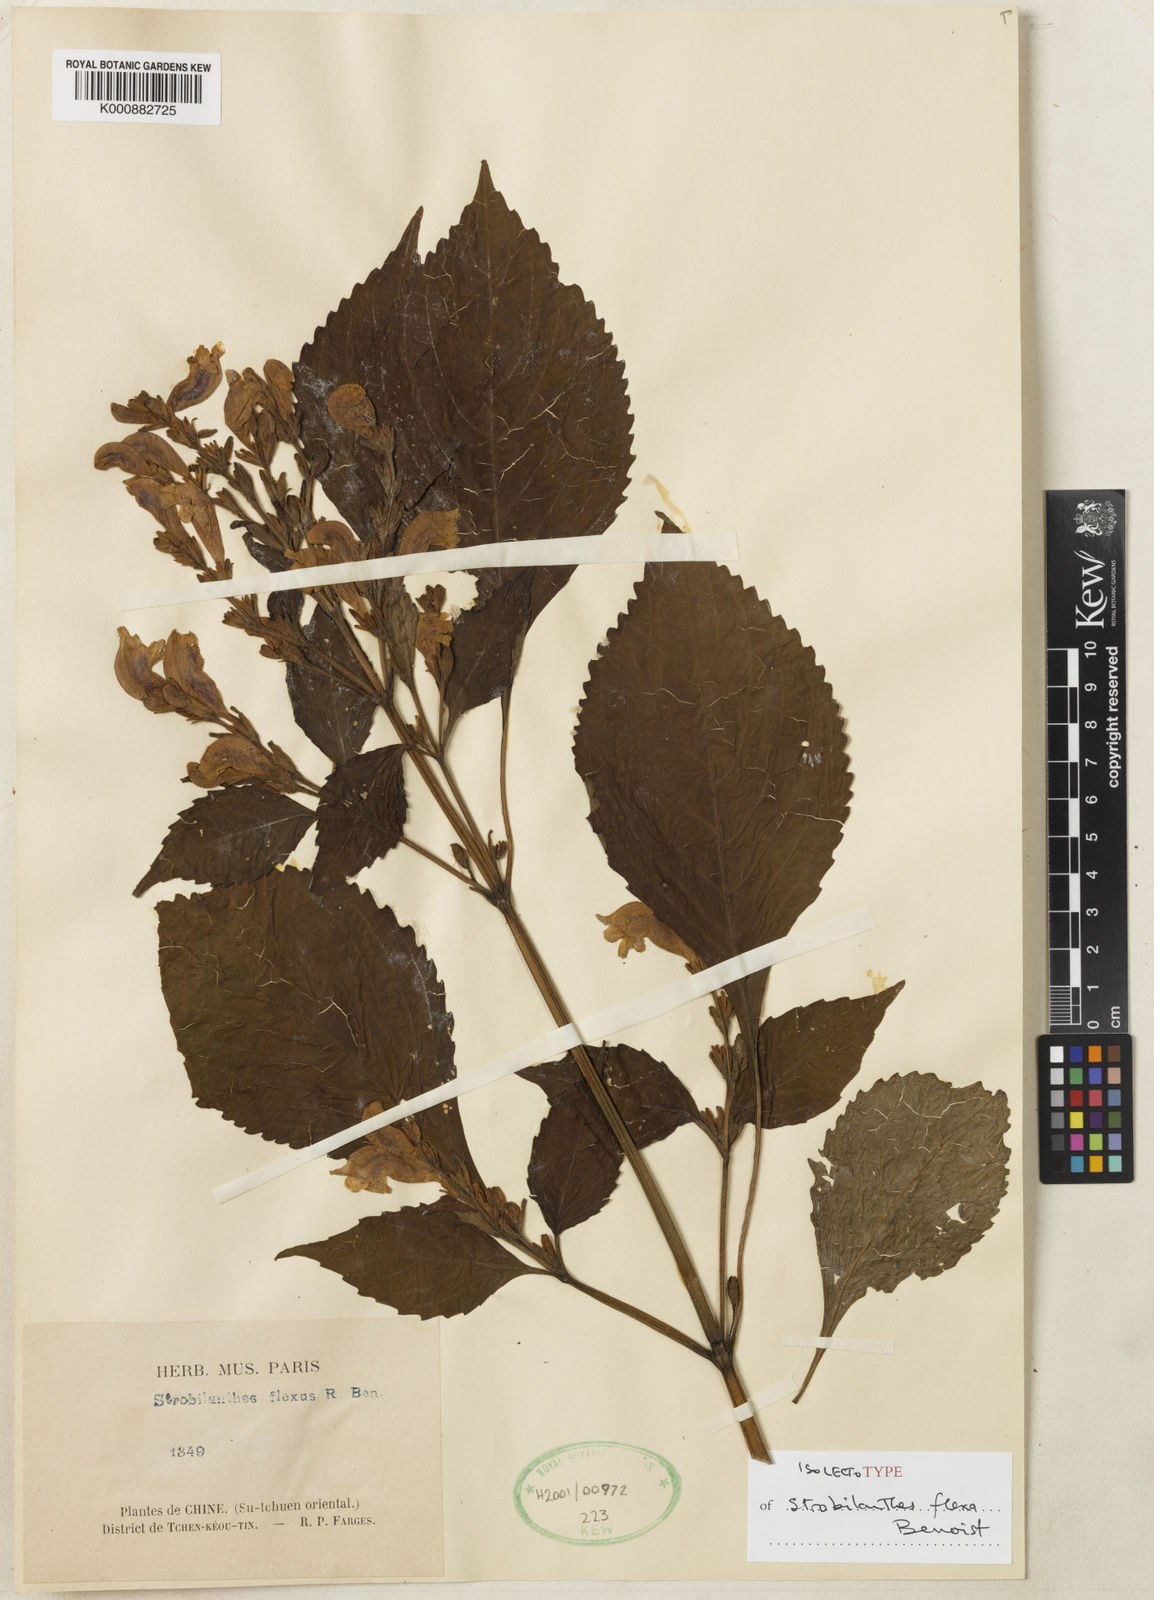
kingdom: Plantae
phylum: Tracheophyta
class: Magnoliopsida
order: Lamiales
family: Acanthaceae
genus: Strobilanthes
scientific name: Strobilanthes versicolor
